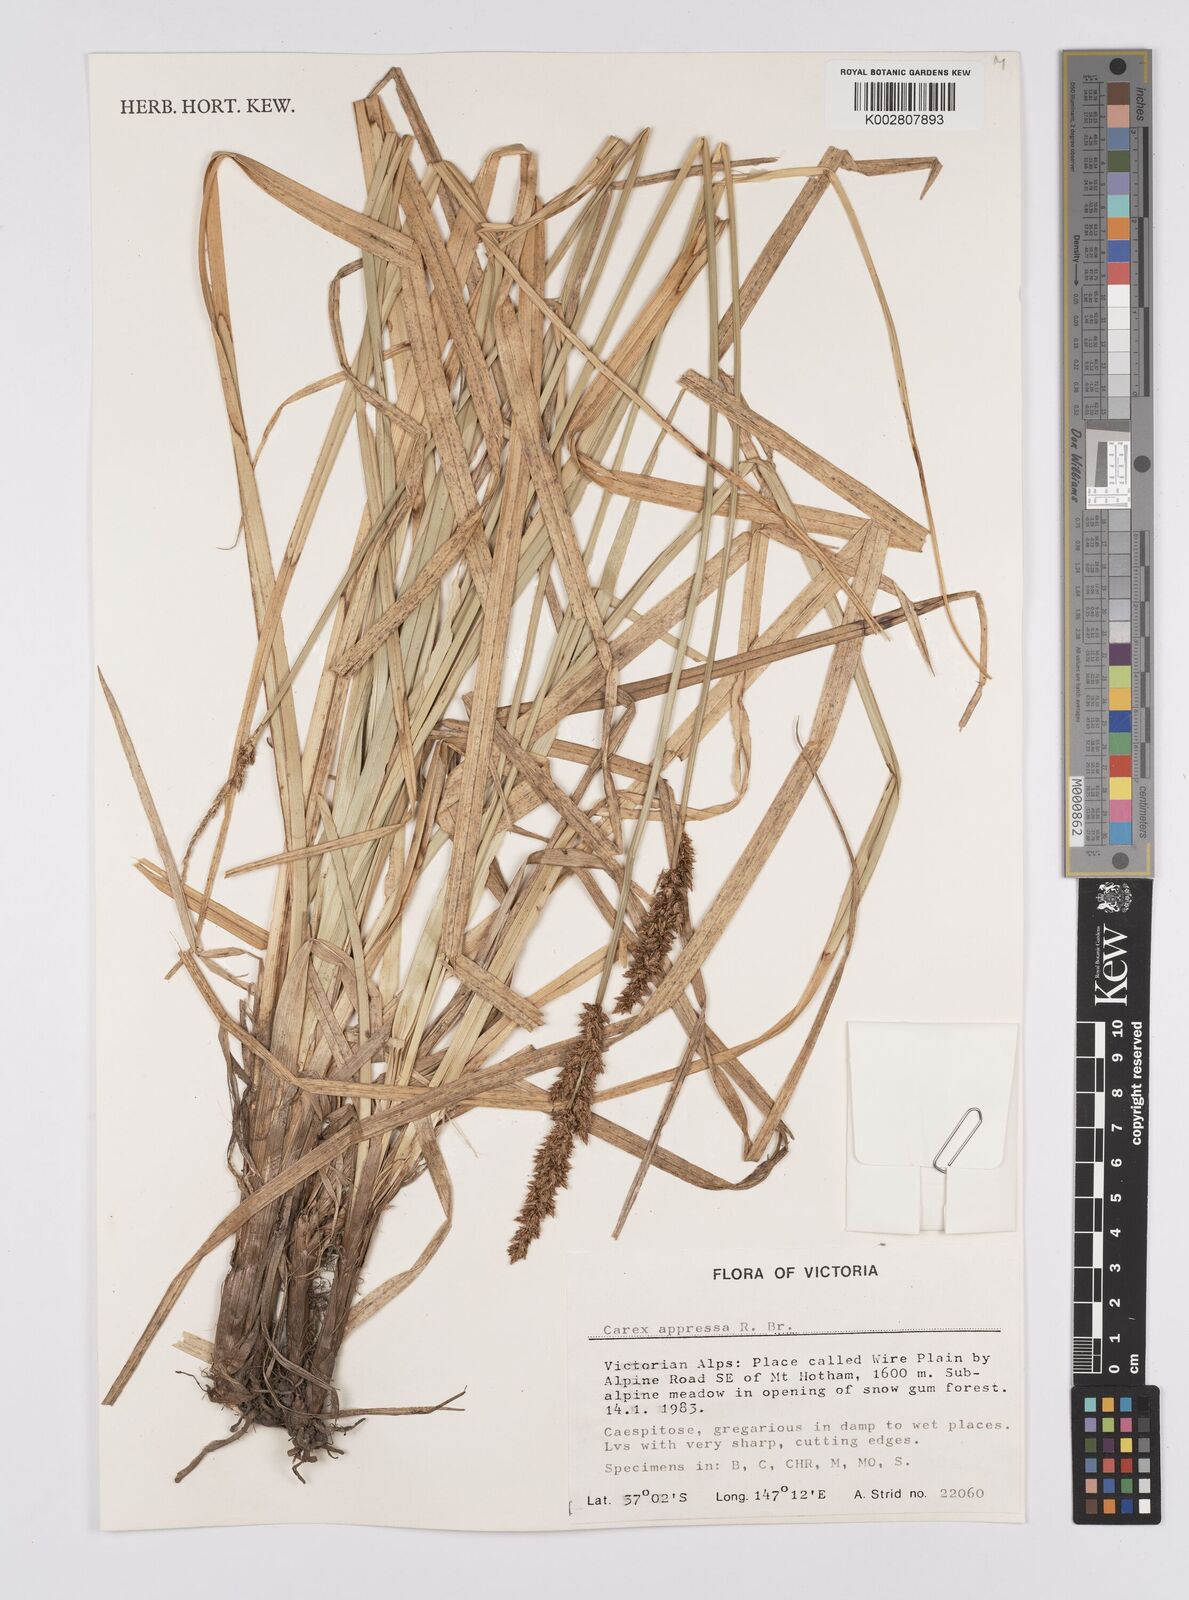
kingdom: Plantae
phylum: Tracheophyta
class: Liliopsida
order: Poales
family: Cyperaceae
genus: Carex
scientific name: Carex appressa
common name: Tussock sedge
